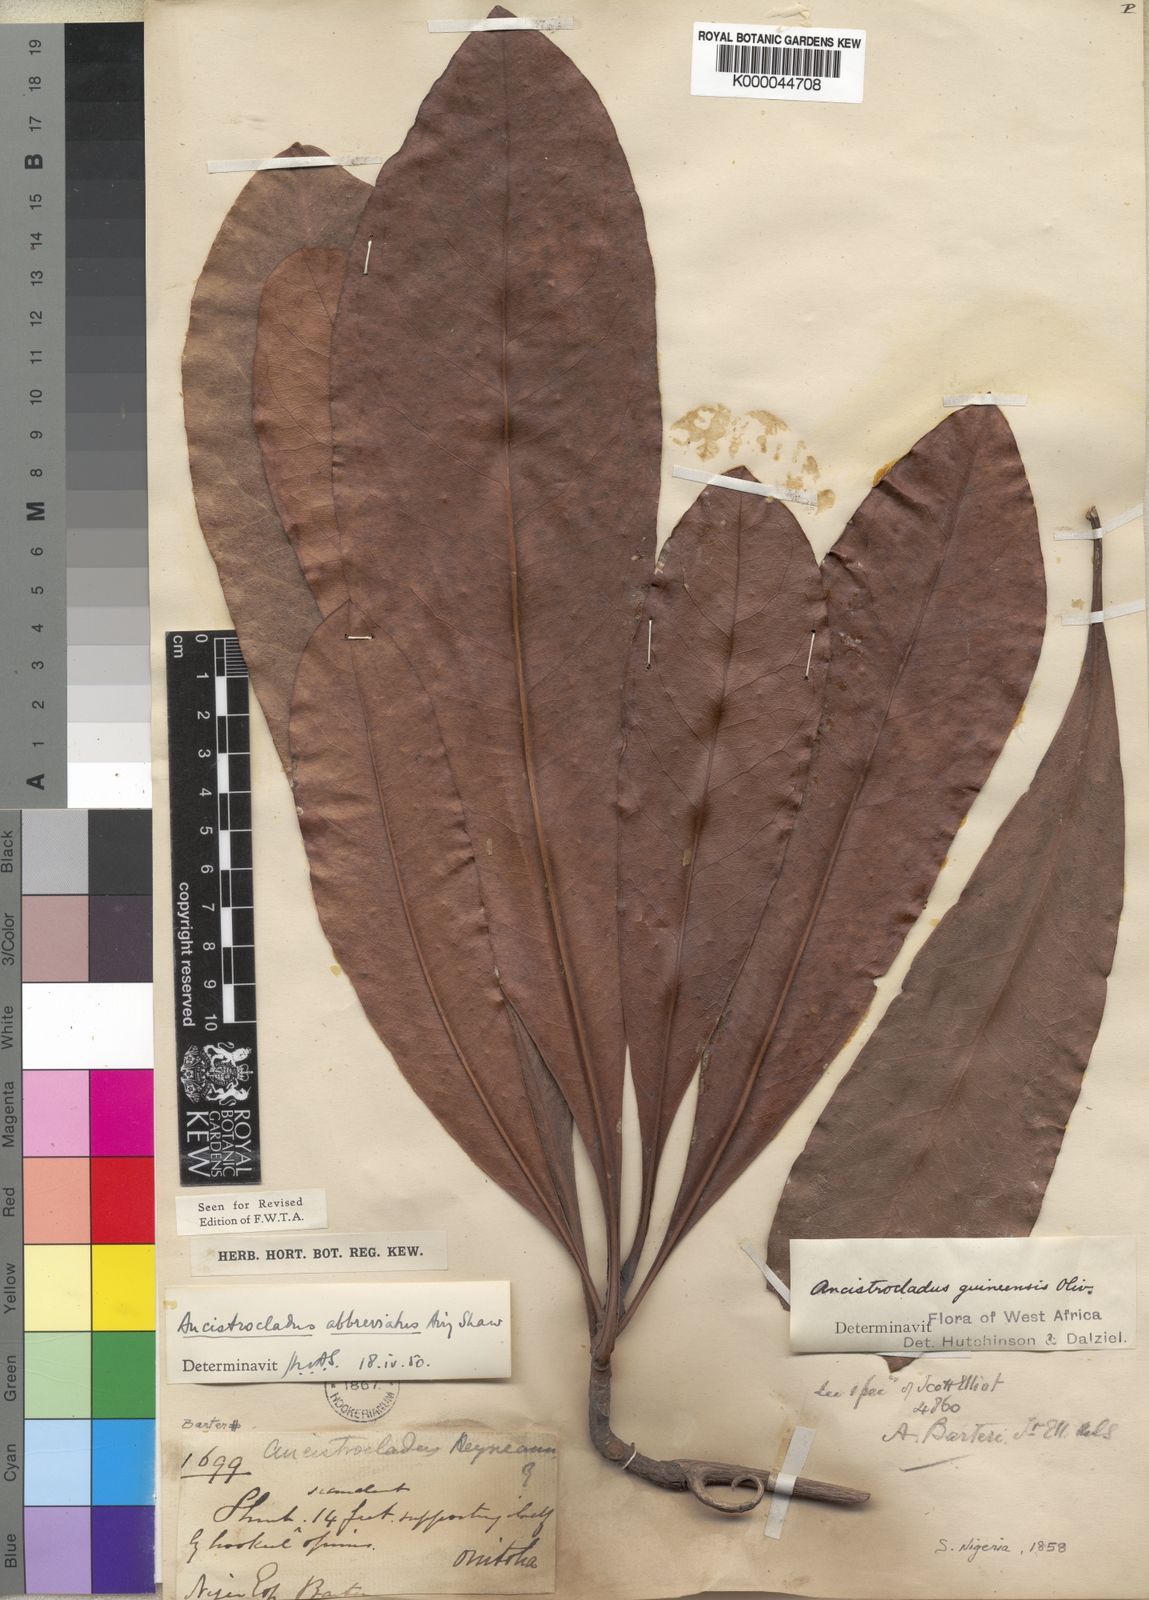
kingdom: Plantae
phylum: Tracheophyta
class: Magnoliopsida
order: Caryophyllales
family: Ancistrocladaceae
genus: Ancistrocladus
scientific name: Ancistrocladus abbreviatus
